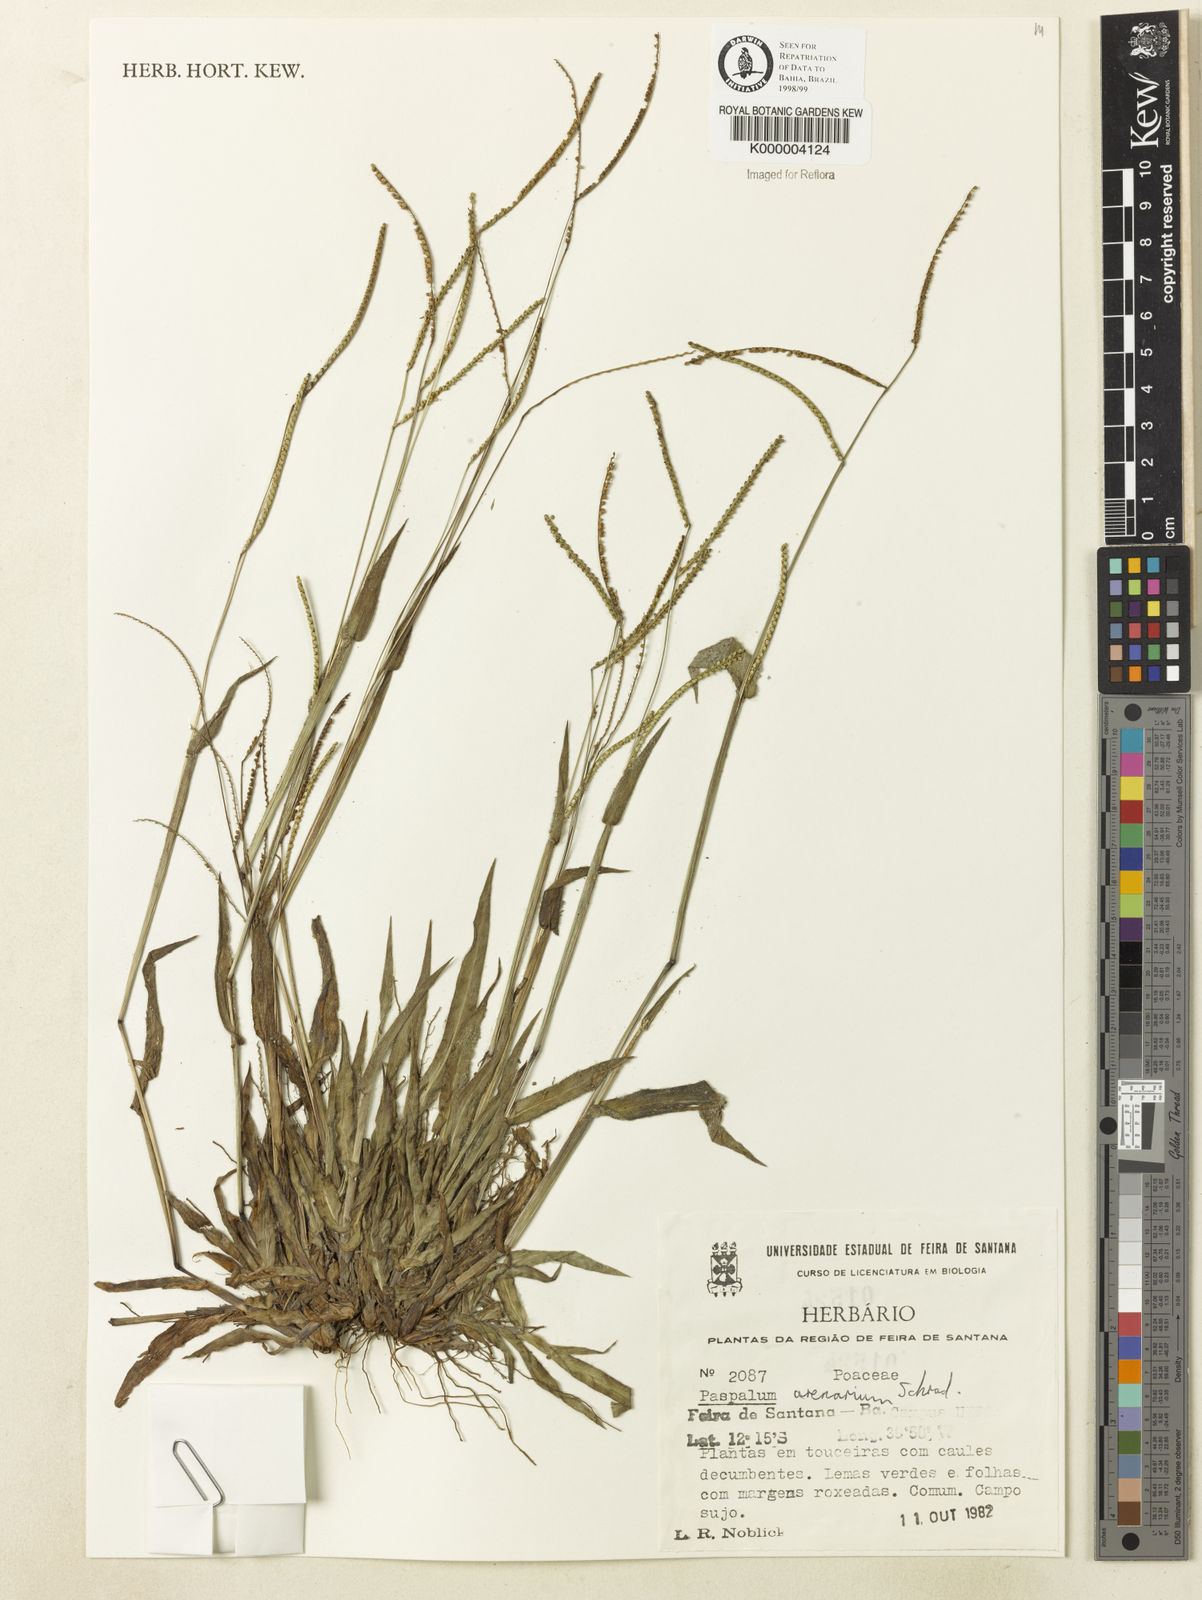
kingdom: Plantae
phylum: Tracheophyta
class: Liliopsida
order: Poales
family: Poaceae
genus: Paspalum
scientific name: Paspalum arenarium
